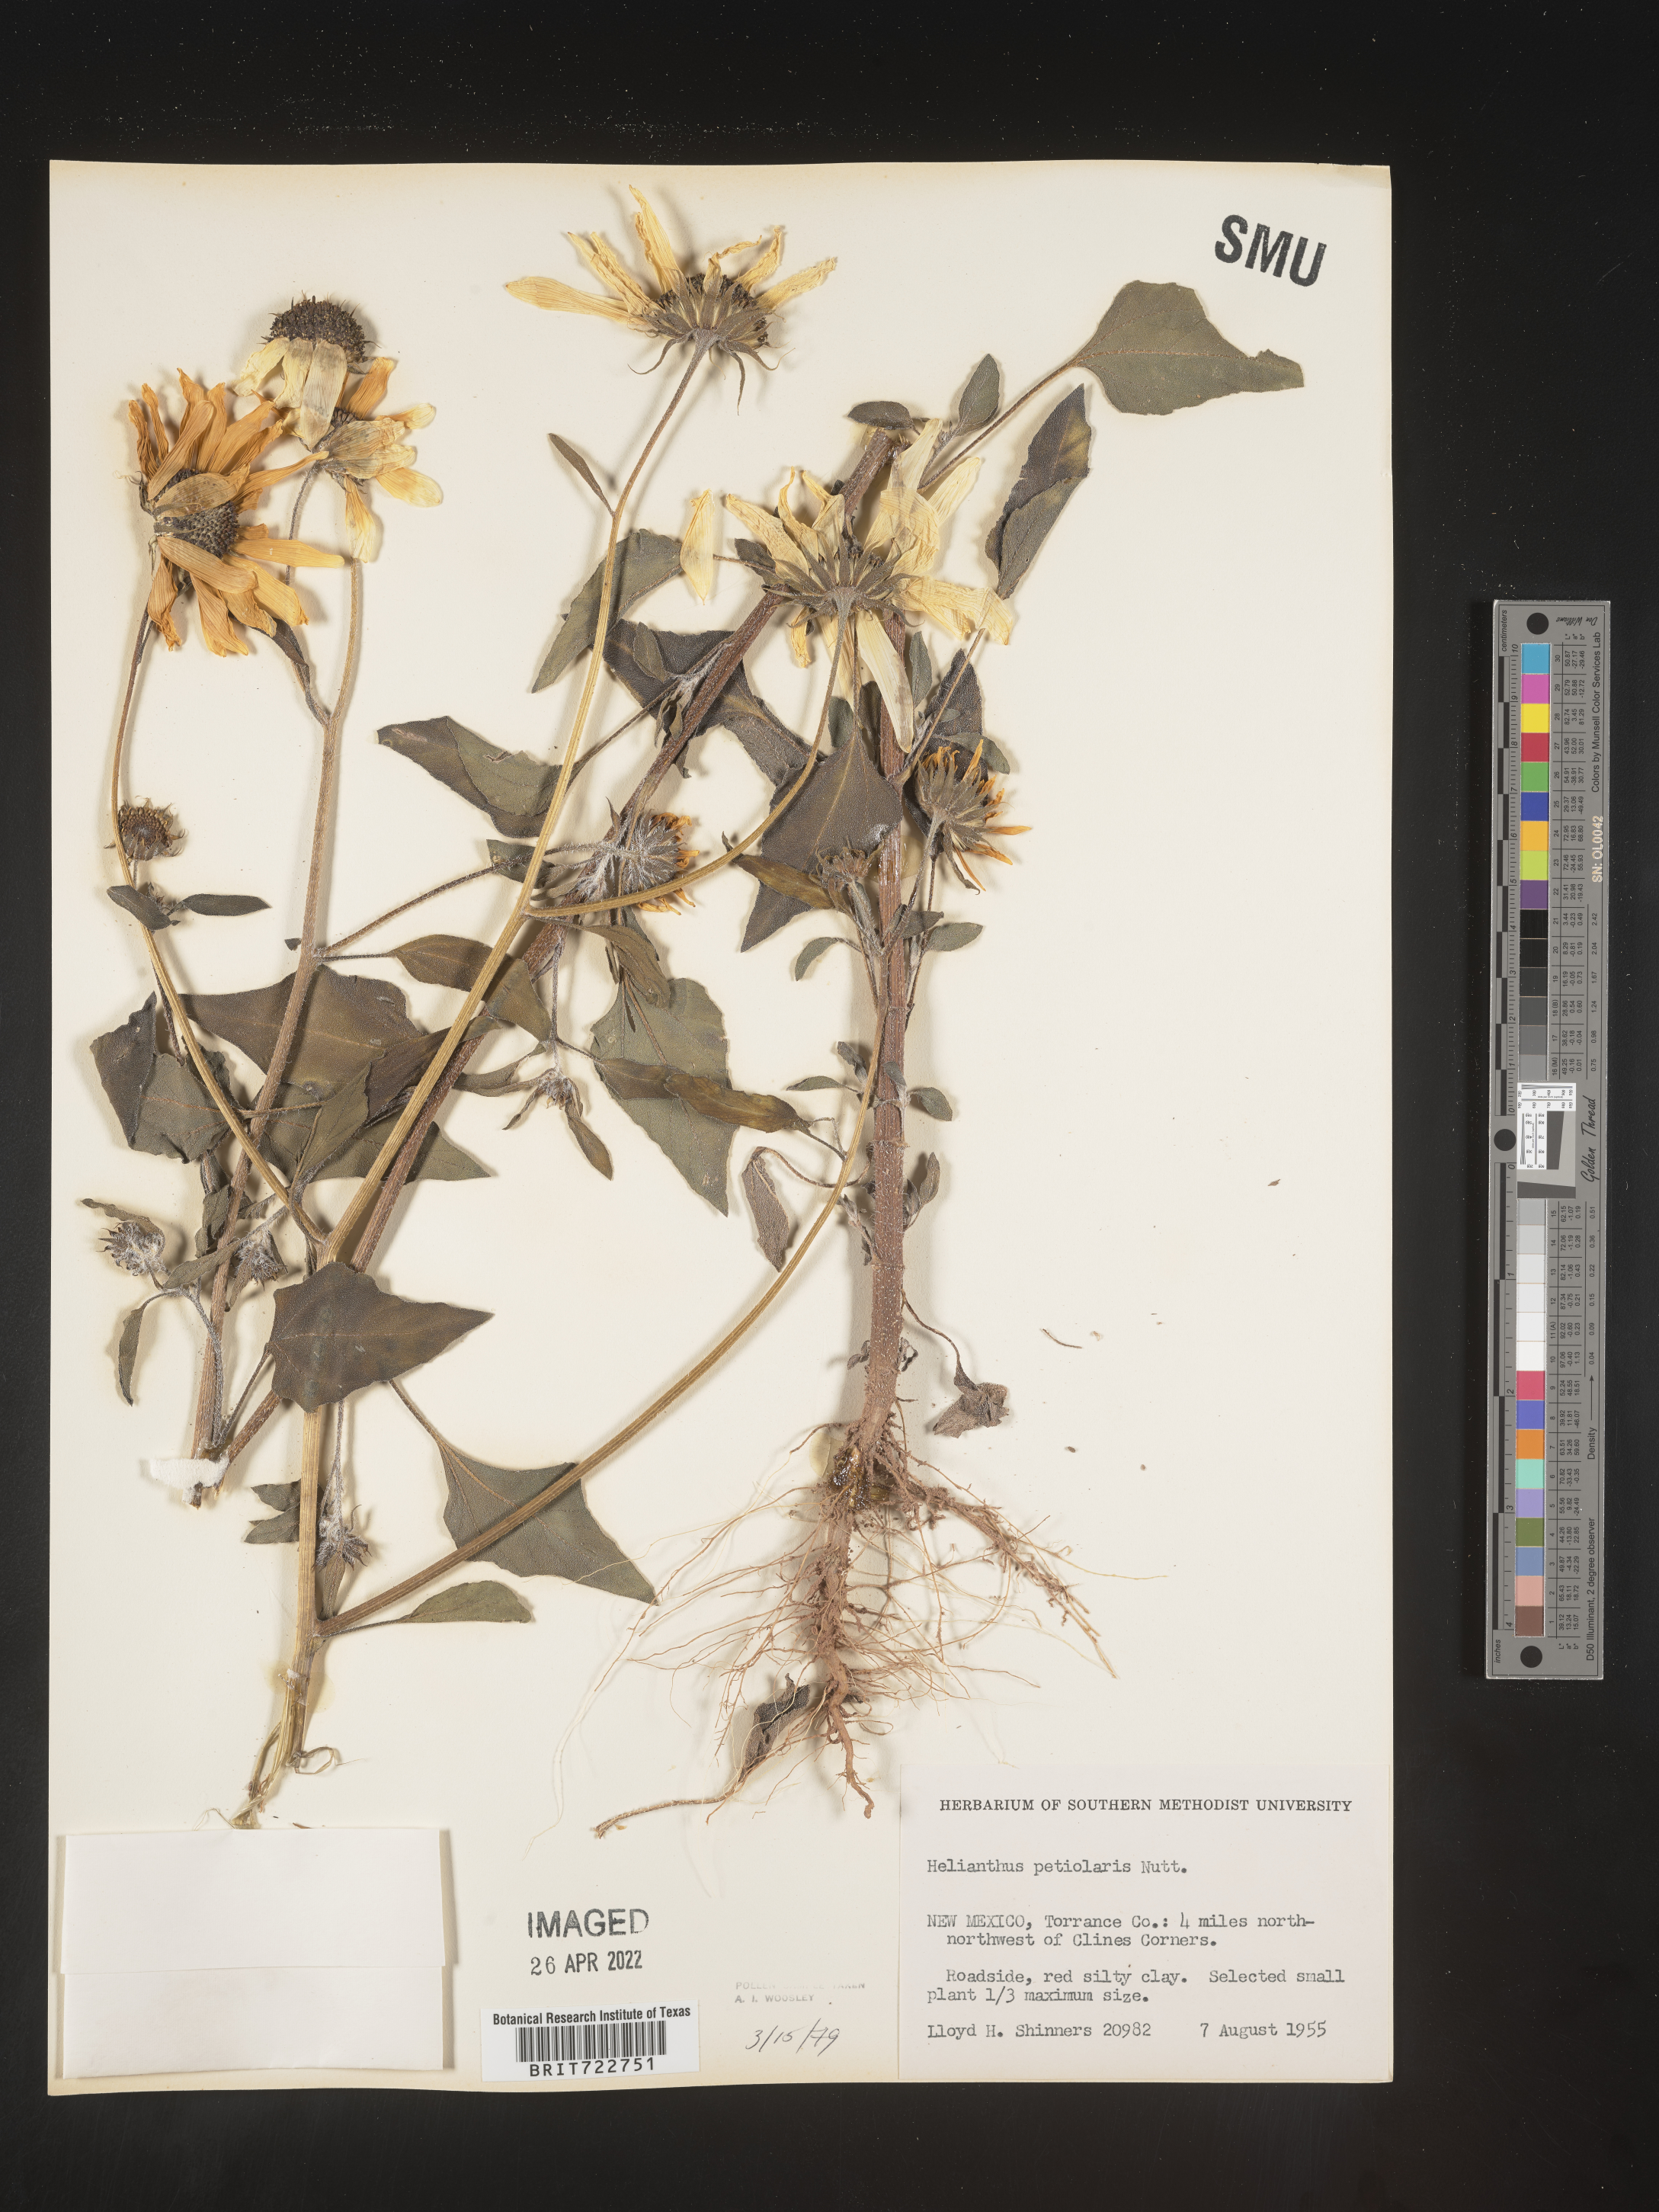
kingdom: Plantae
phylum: Tracheophyta
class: Magnoliopsida
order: Asterales
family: Asteraceae
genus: Helianthus
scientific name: Helianthus petiolaris
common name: Lesser sunflower
